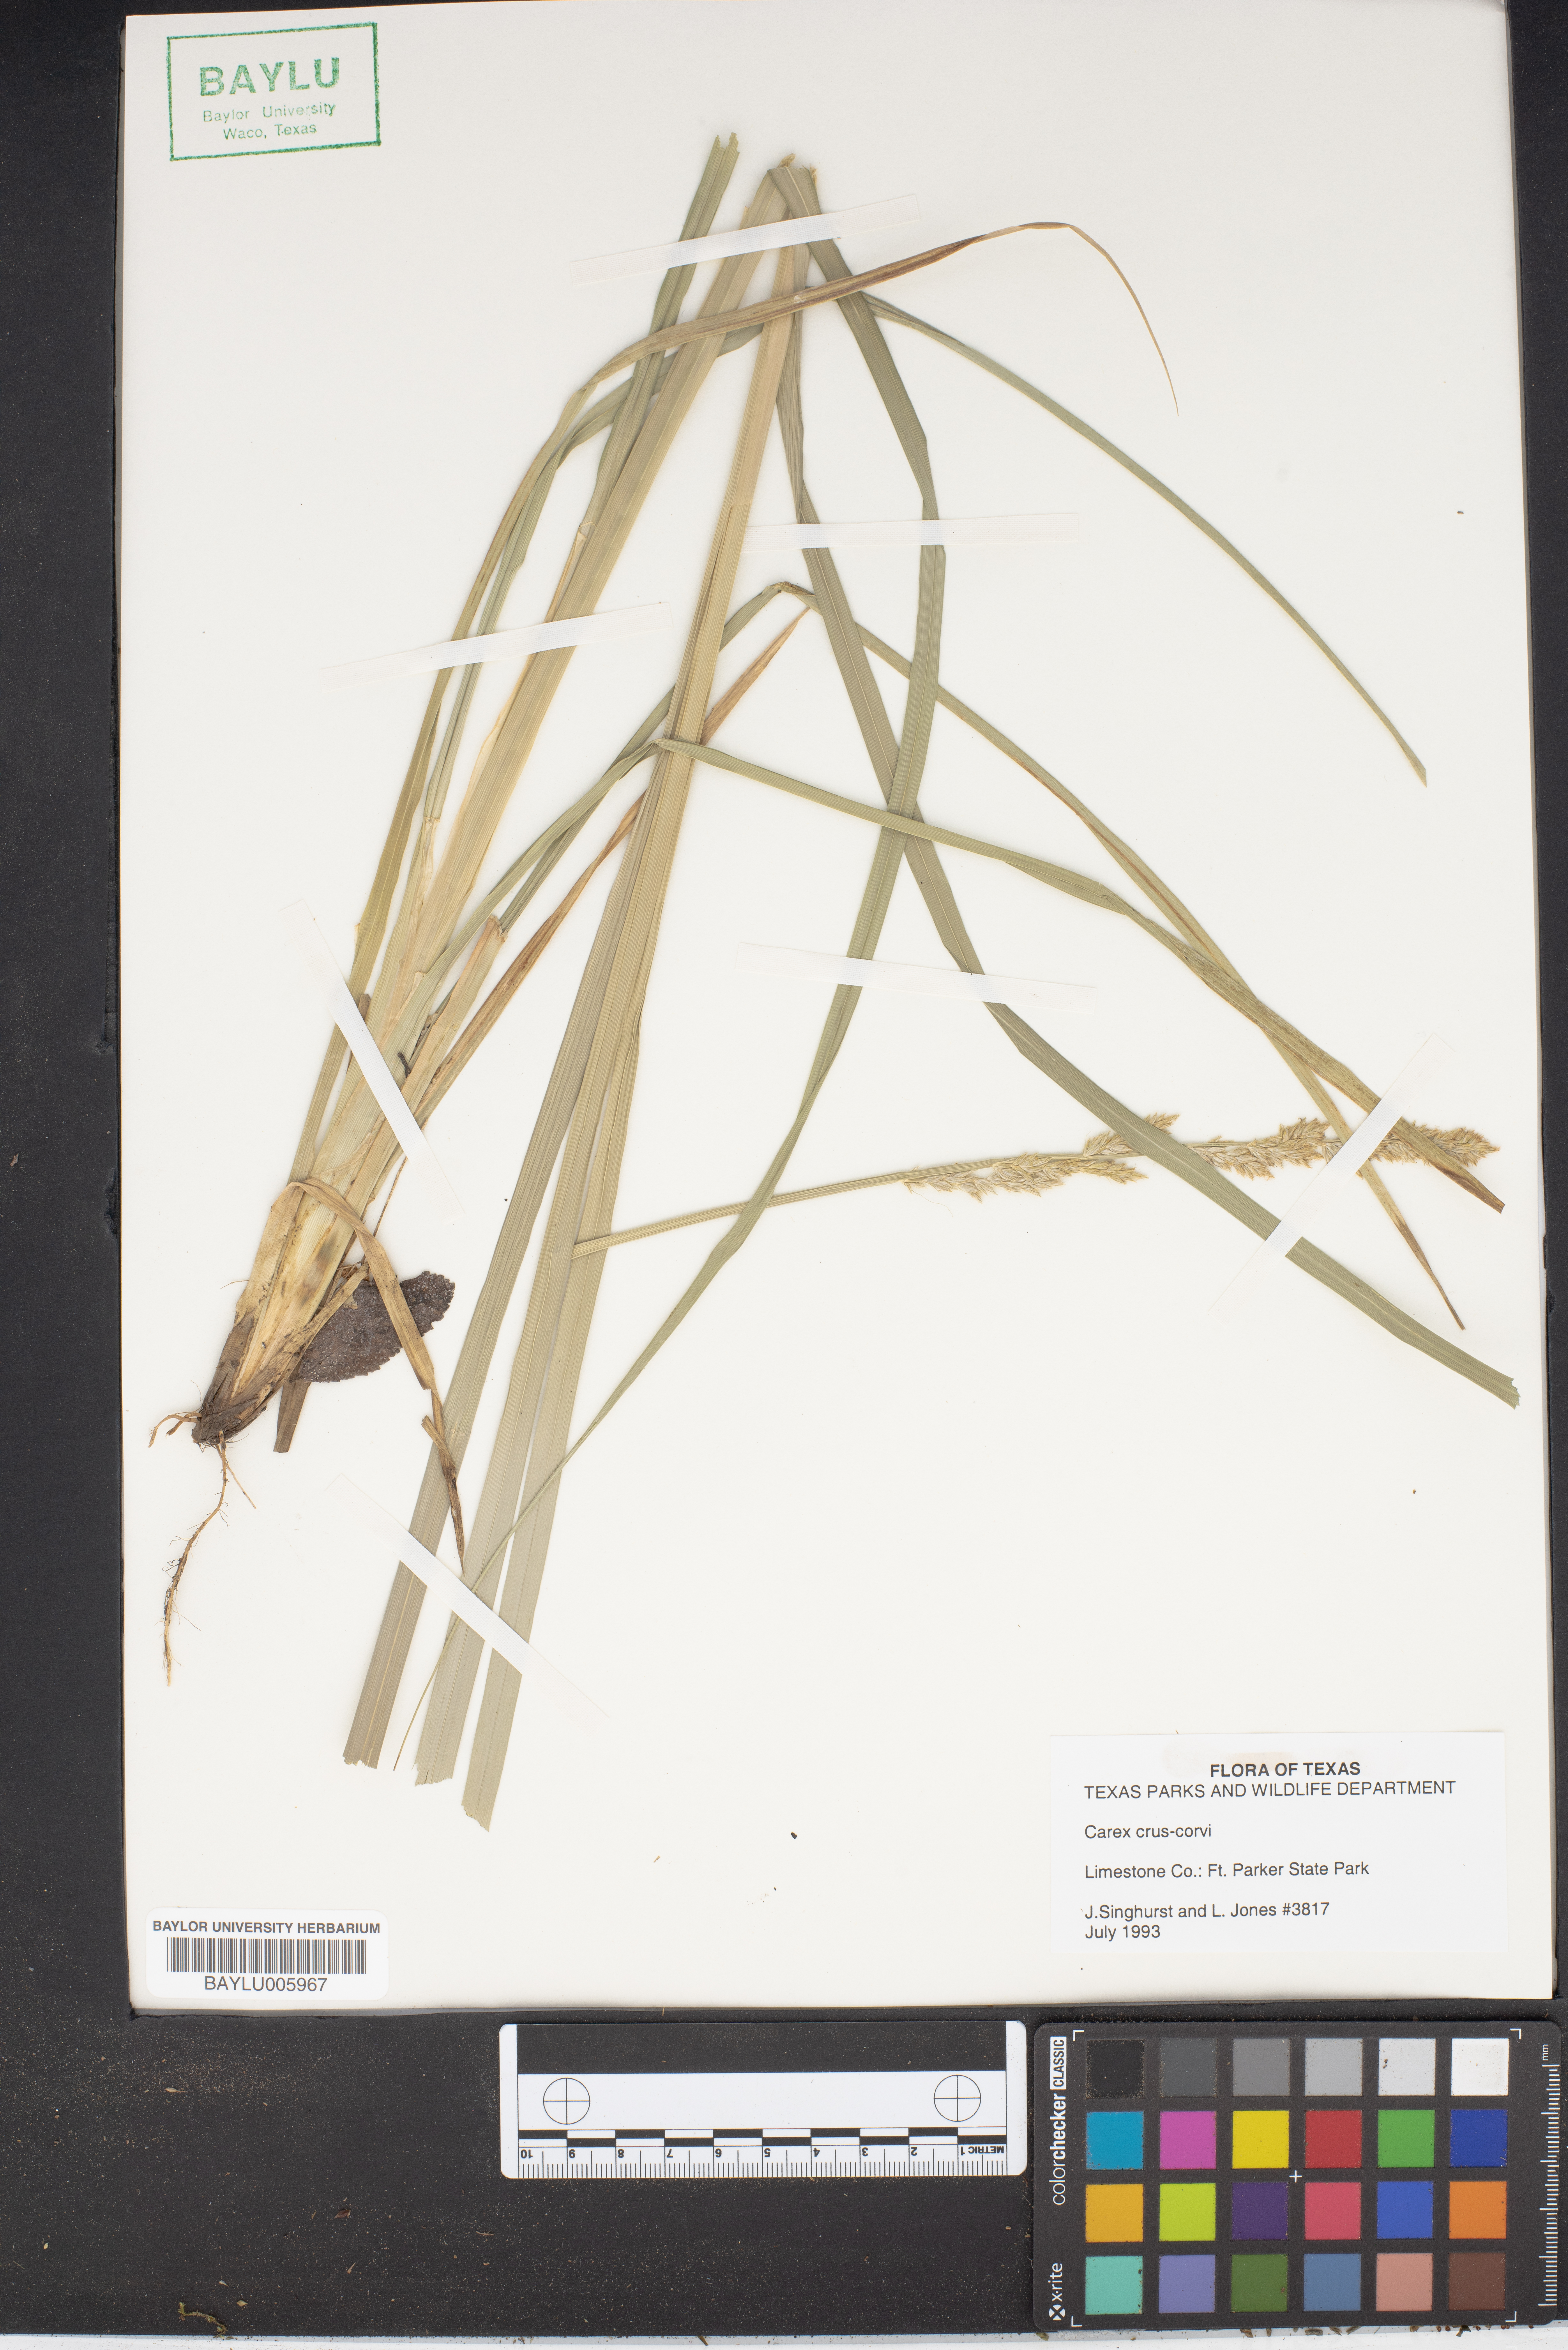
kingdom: Plantae
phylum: Tracheophyta
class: Liliopsida
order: Poales
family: Cyperaceae
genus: Carex
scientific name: Carex crus-corvi
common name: Crow-spur sedge
